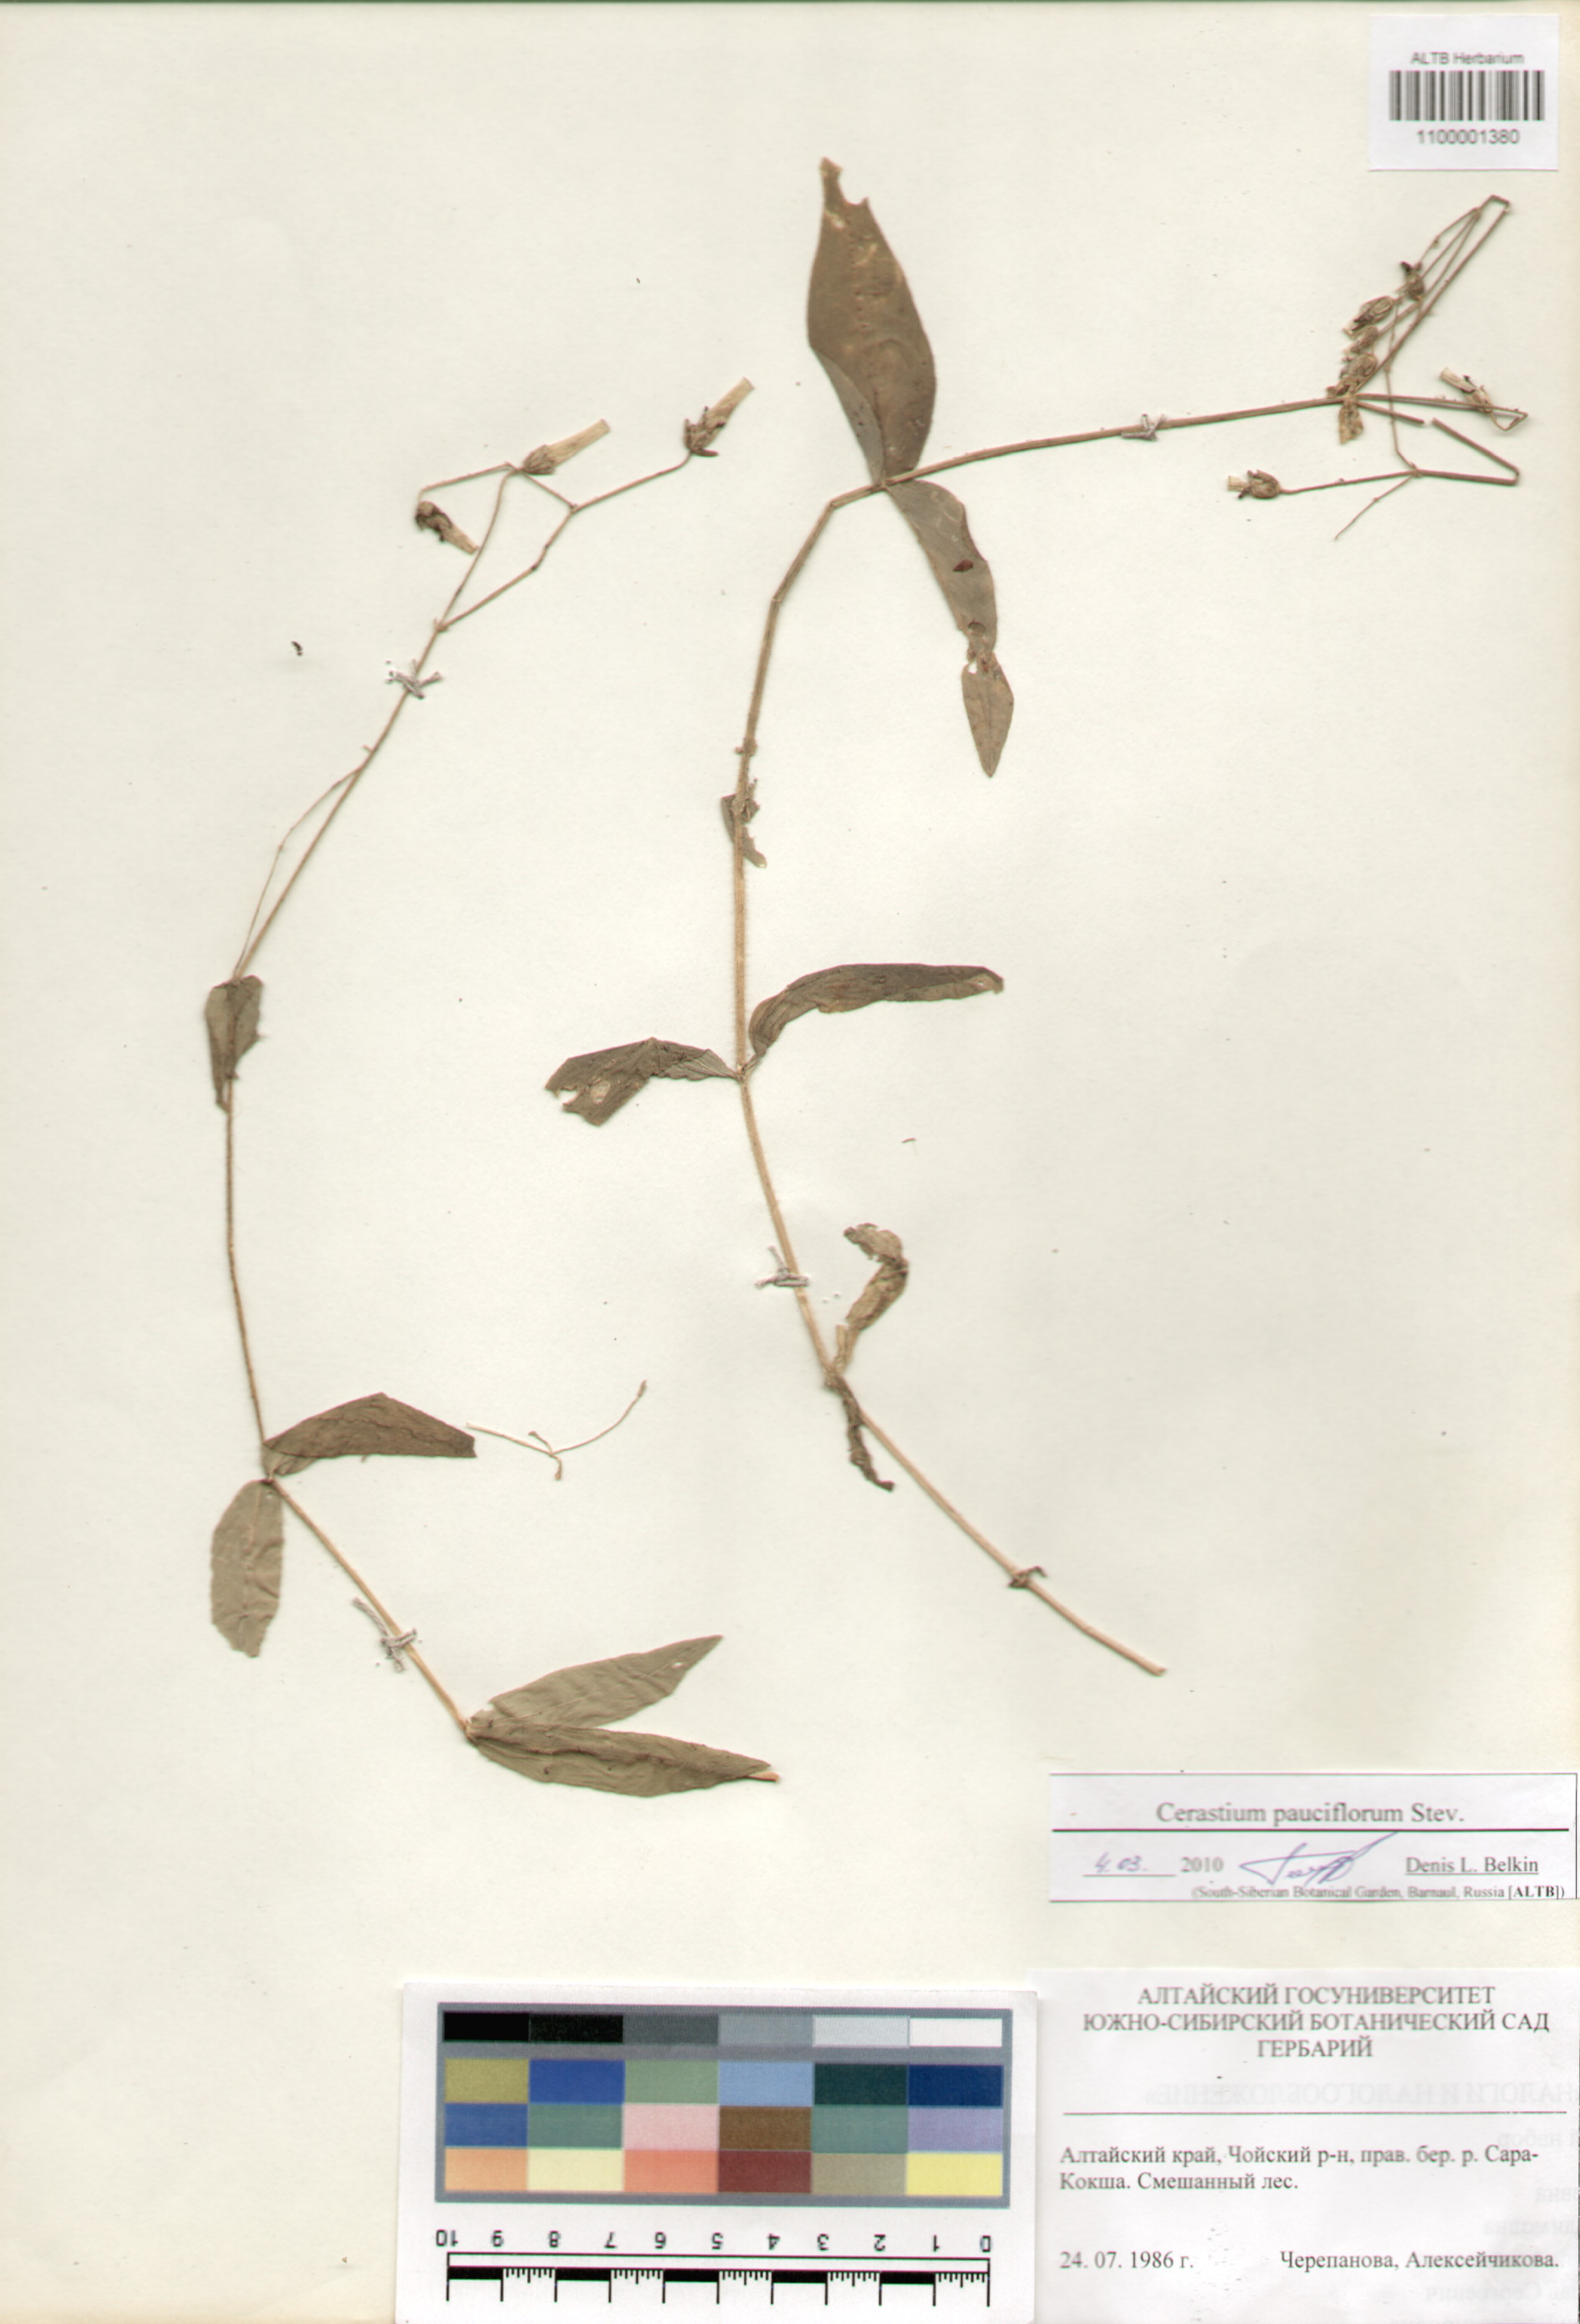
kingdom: Plantae
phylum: Tracheophyta
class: Magnoliopsida
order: Caryophyllales
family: Caryophyllaceae
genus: Cerastium
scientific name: Cerastium pauciflorum
